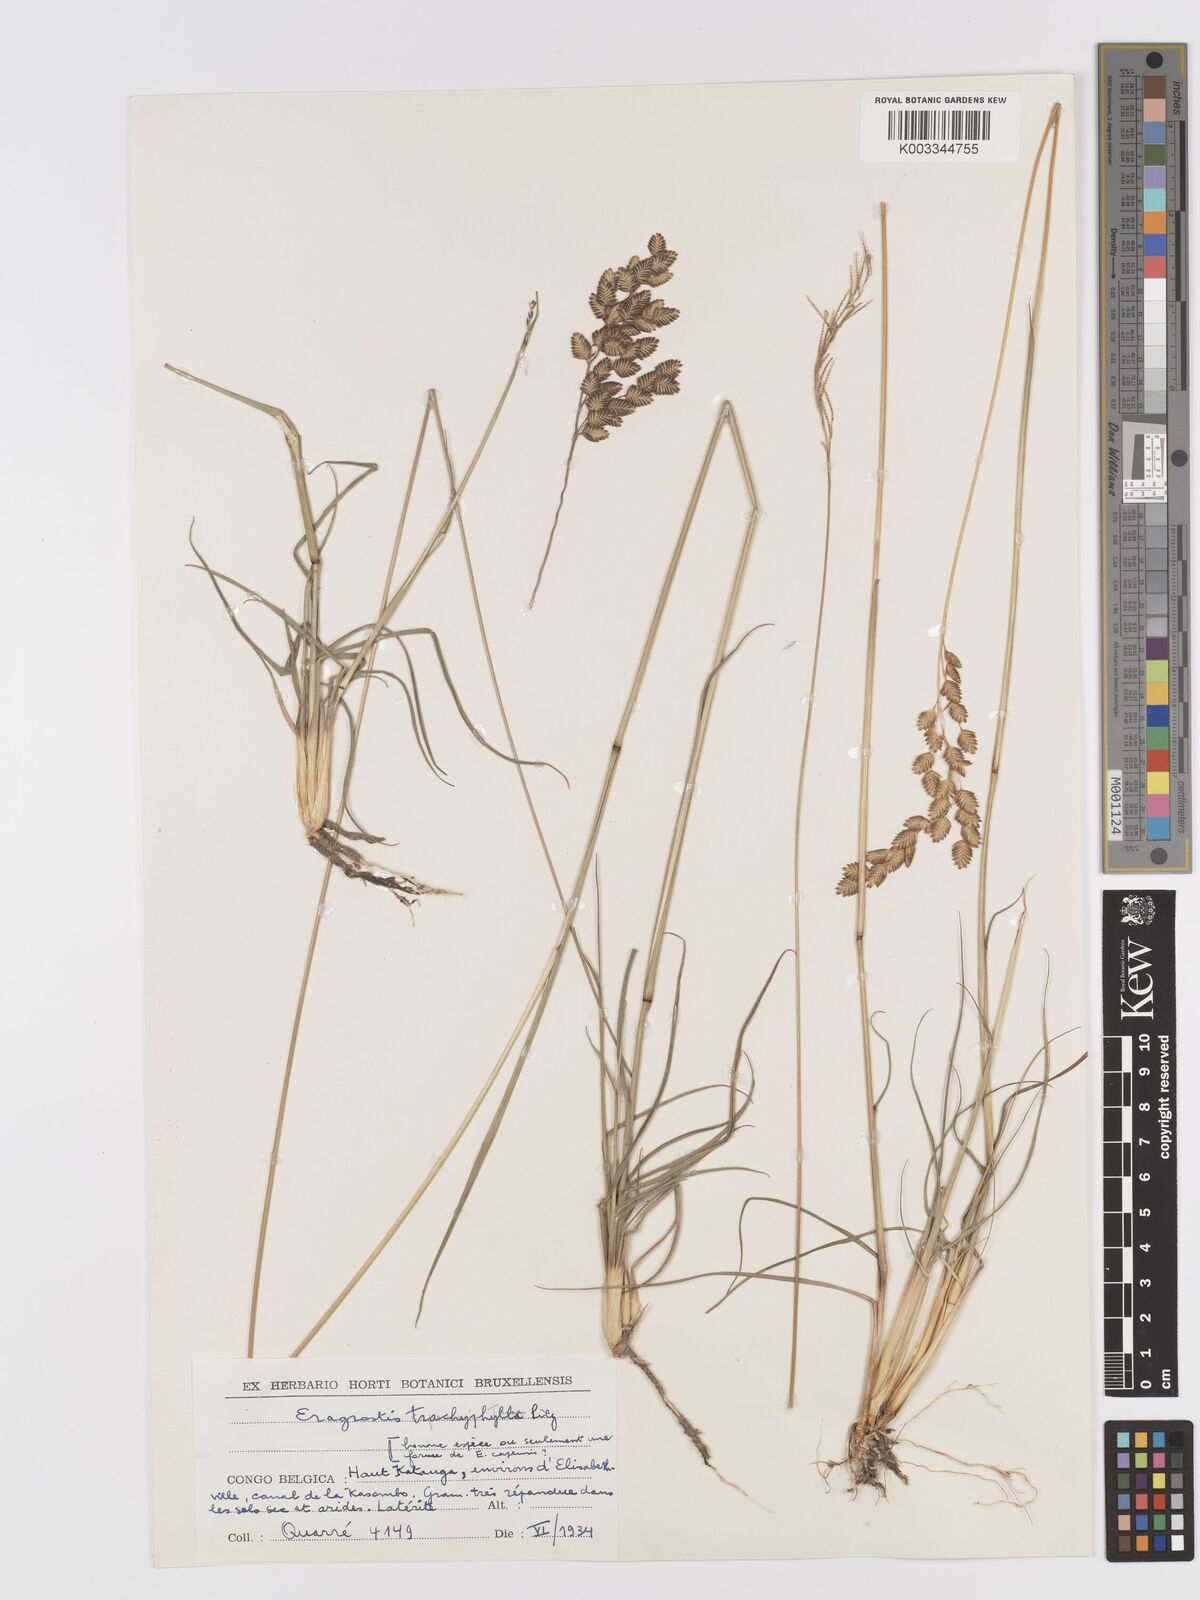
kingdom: Plantae
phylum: Tracheophyta
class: Liliopsida
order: Poales
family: Poaceae
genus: Eragrostis
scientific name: Eragrostis capensis
